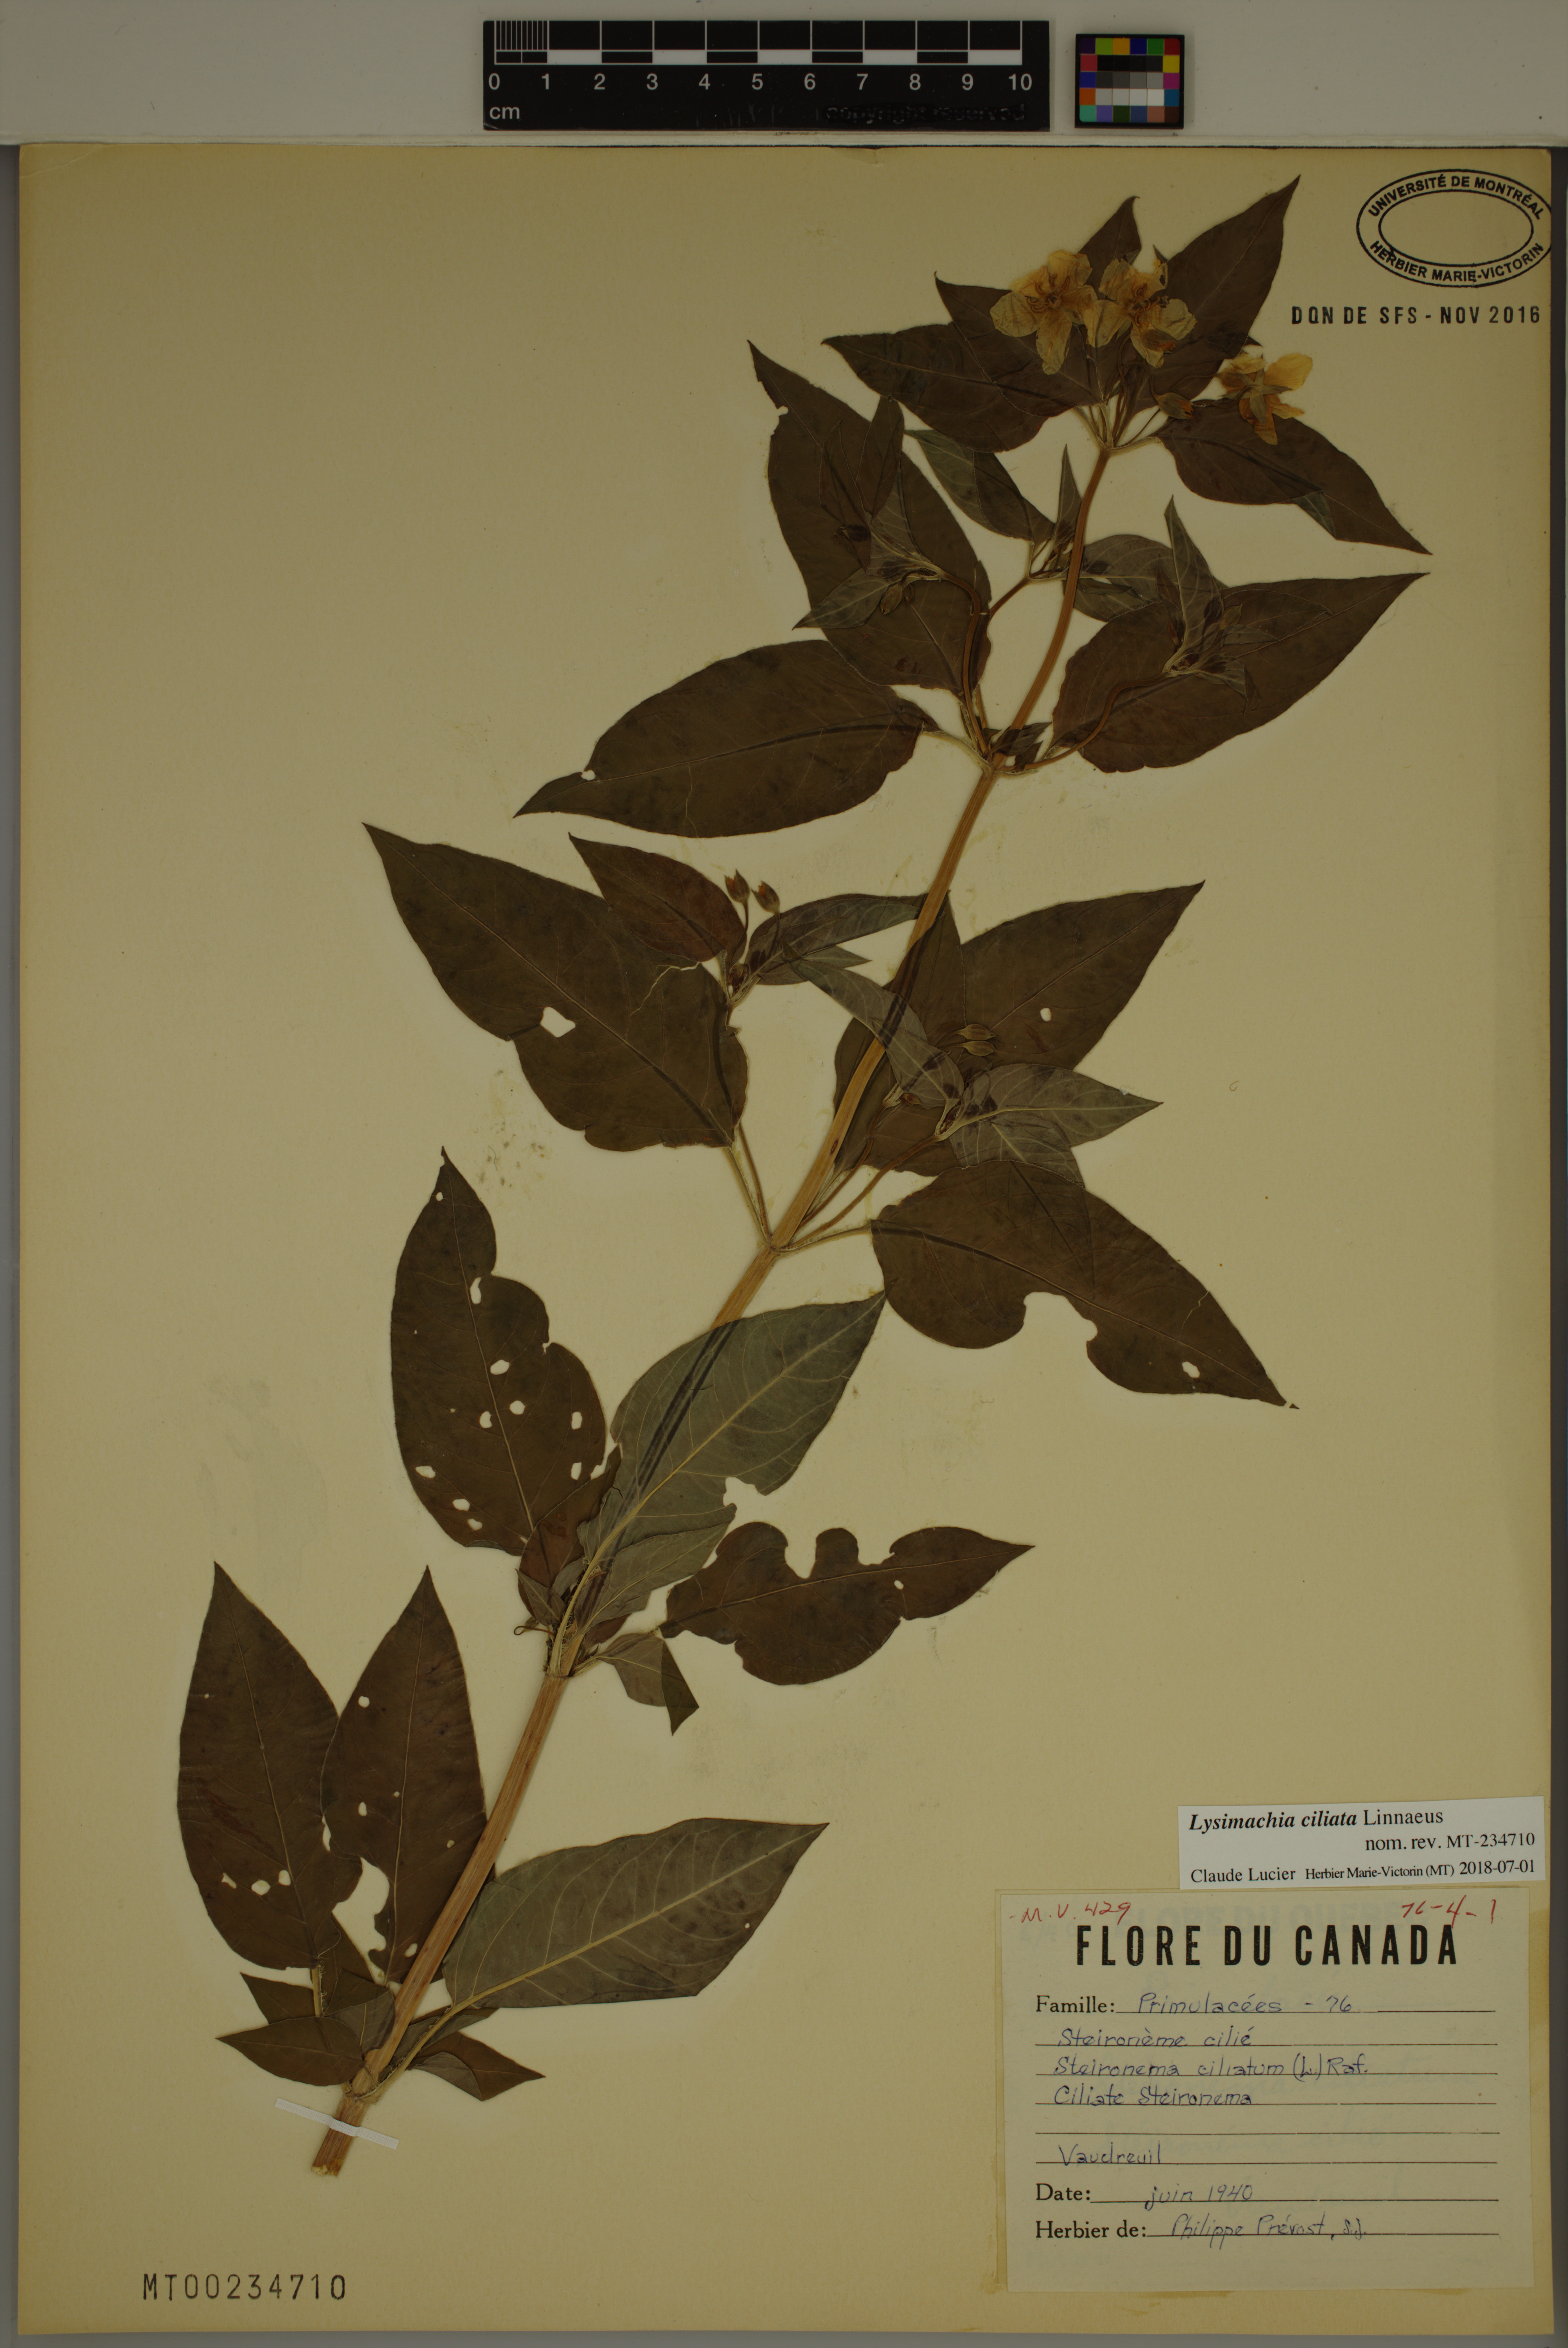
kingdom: Plantae
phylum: Tracheophyta
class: Magnoliopsida
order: Ericales
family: Primulaceae
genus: Lysimachia
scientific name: Lysimachia ciliata
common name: Fringed loosestrife
